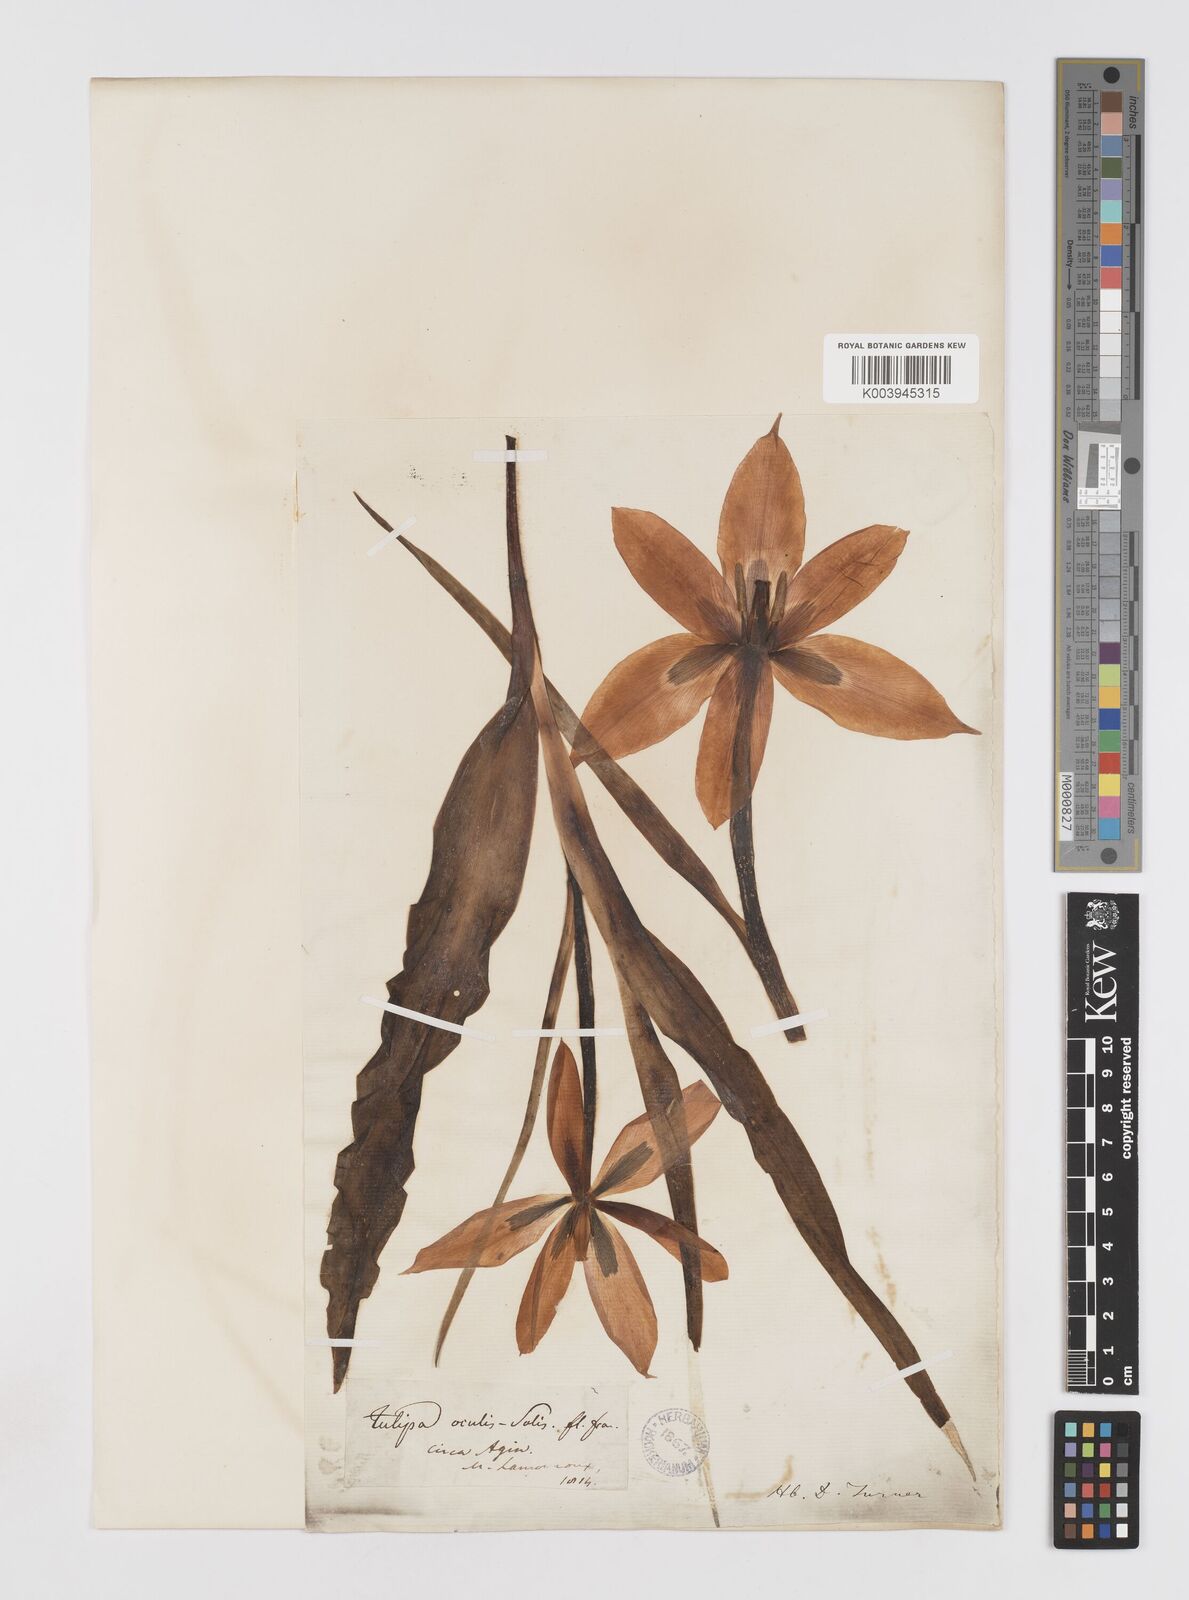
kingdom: Plantae
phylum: Tracheophyta
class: Liliopsida
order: Liliales
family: Liliaceae
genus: Tulipa
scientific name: Tulipa agenensis
